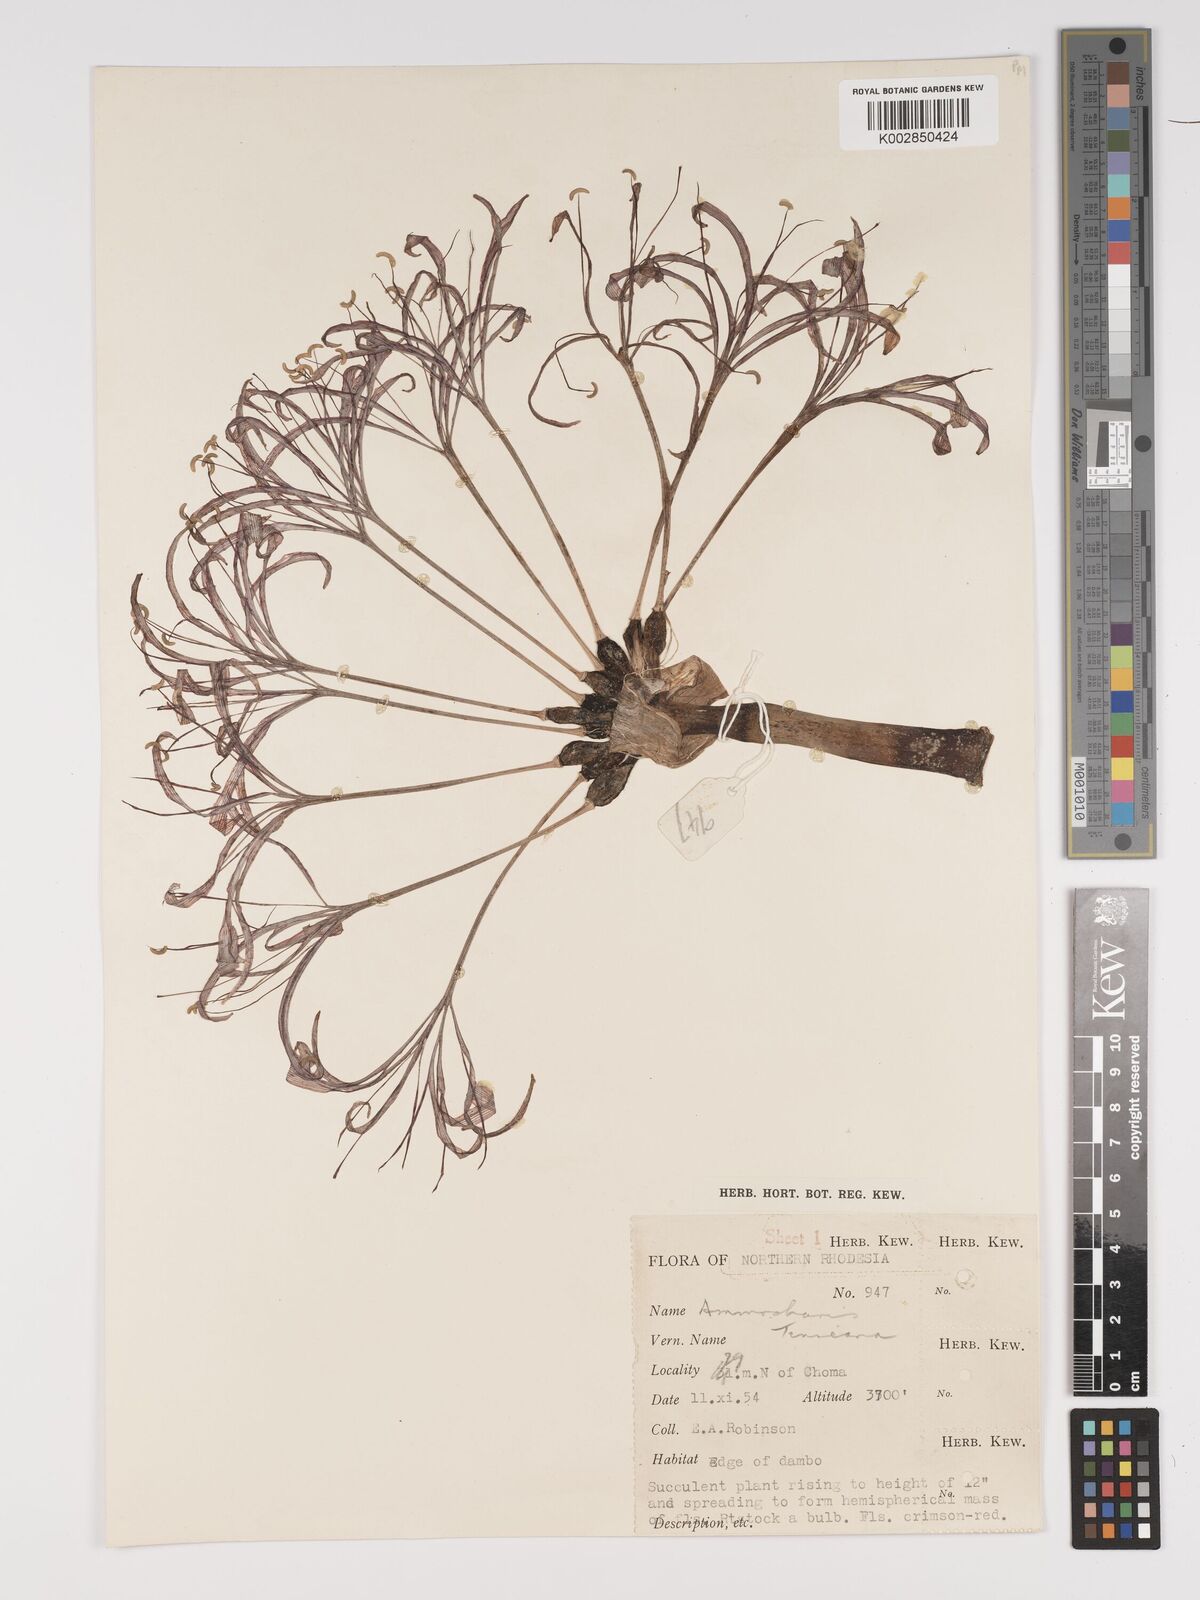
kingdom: Plantae
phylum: Tracheophyta
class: Liliopsida
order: Asparagales
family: Amaryllidaceae
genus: Ammocharis
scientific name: Ammocharis tinneana
